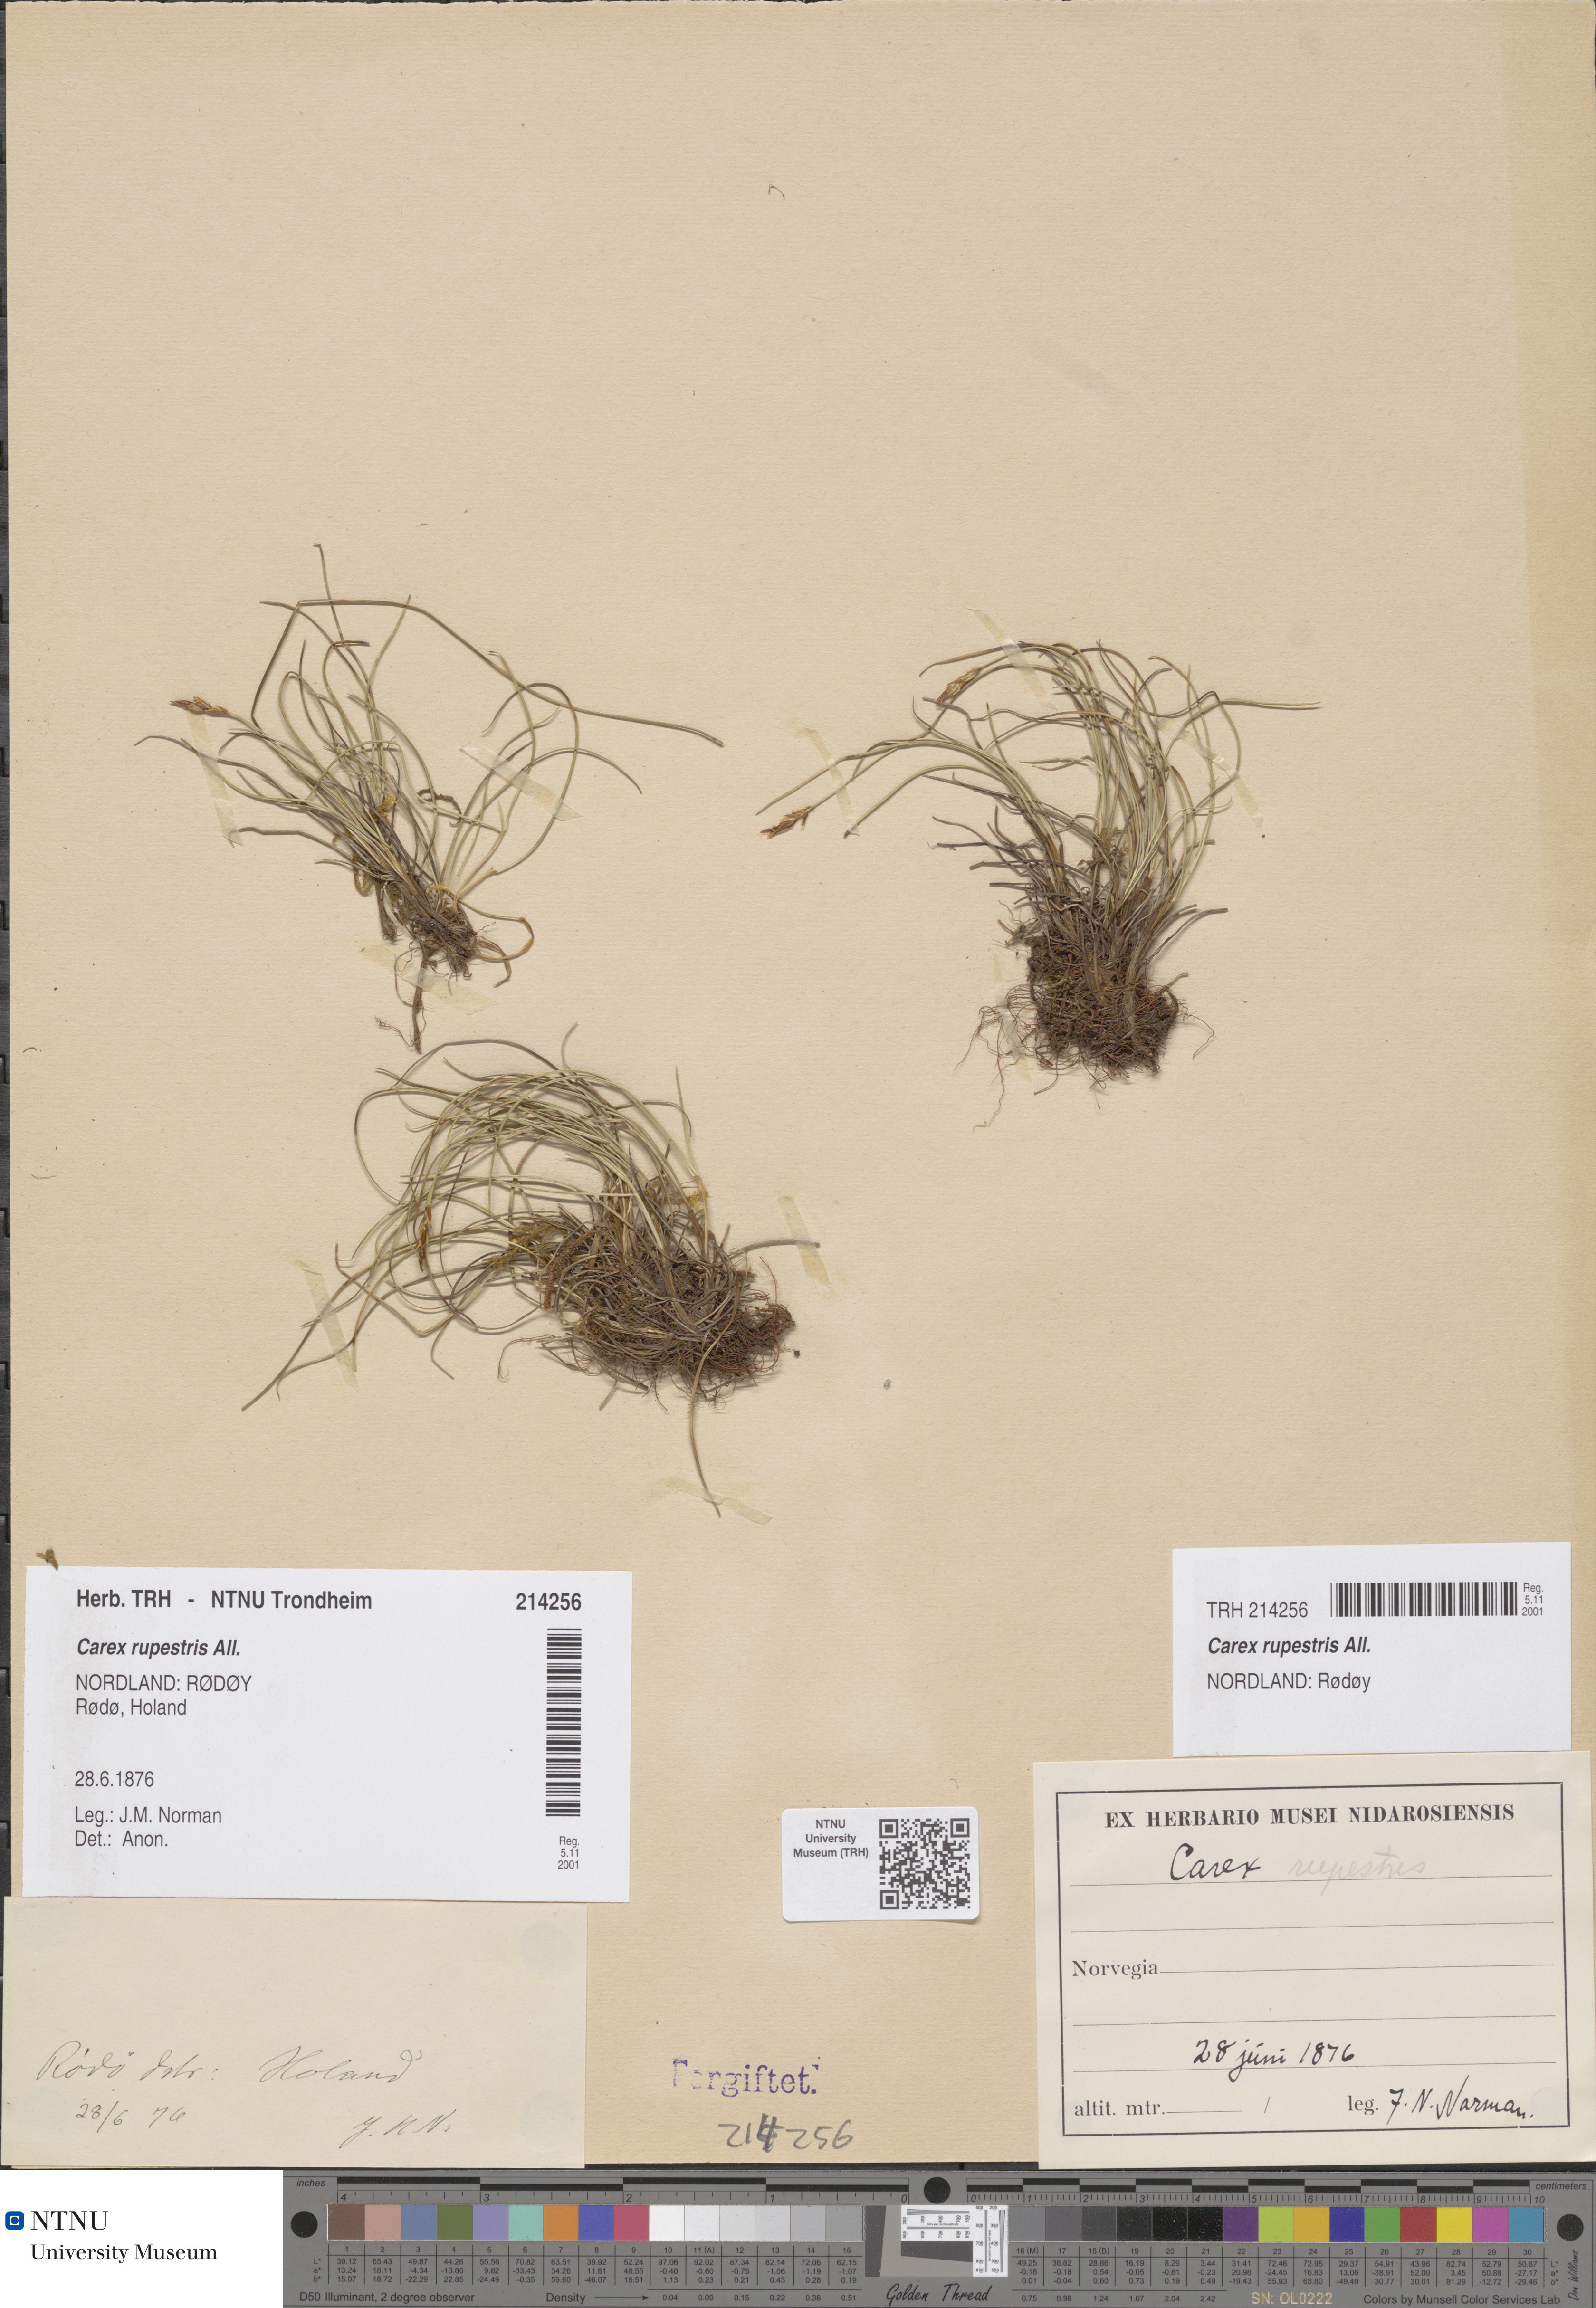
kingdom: Plantae
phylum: Tracheophyta
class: Liliopsida
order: Poales
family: Cyperaceae
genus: Carex
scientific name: Carex rupestris
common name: Rock sedge
